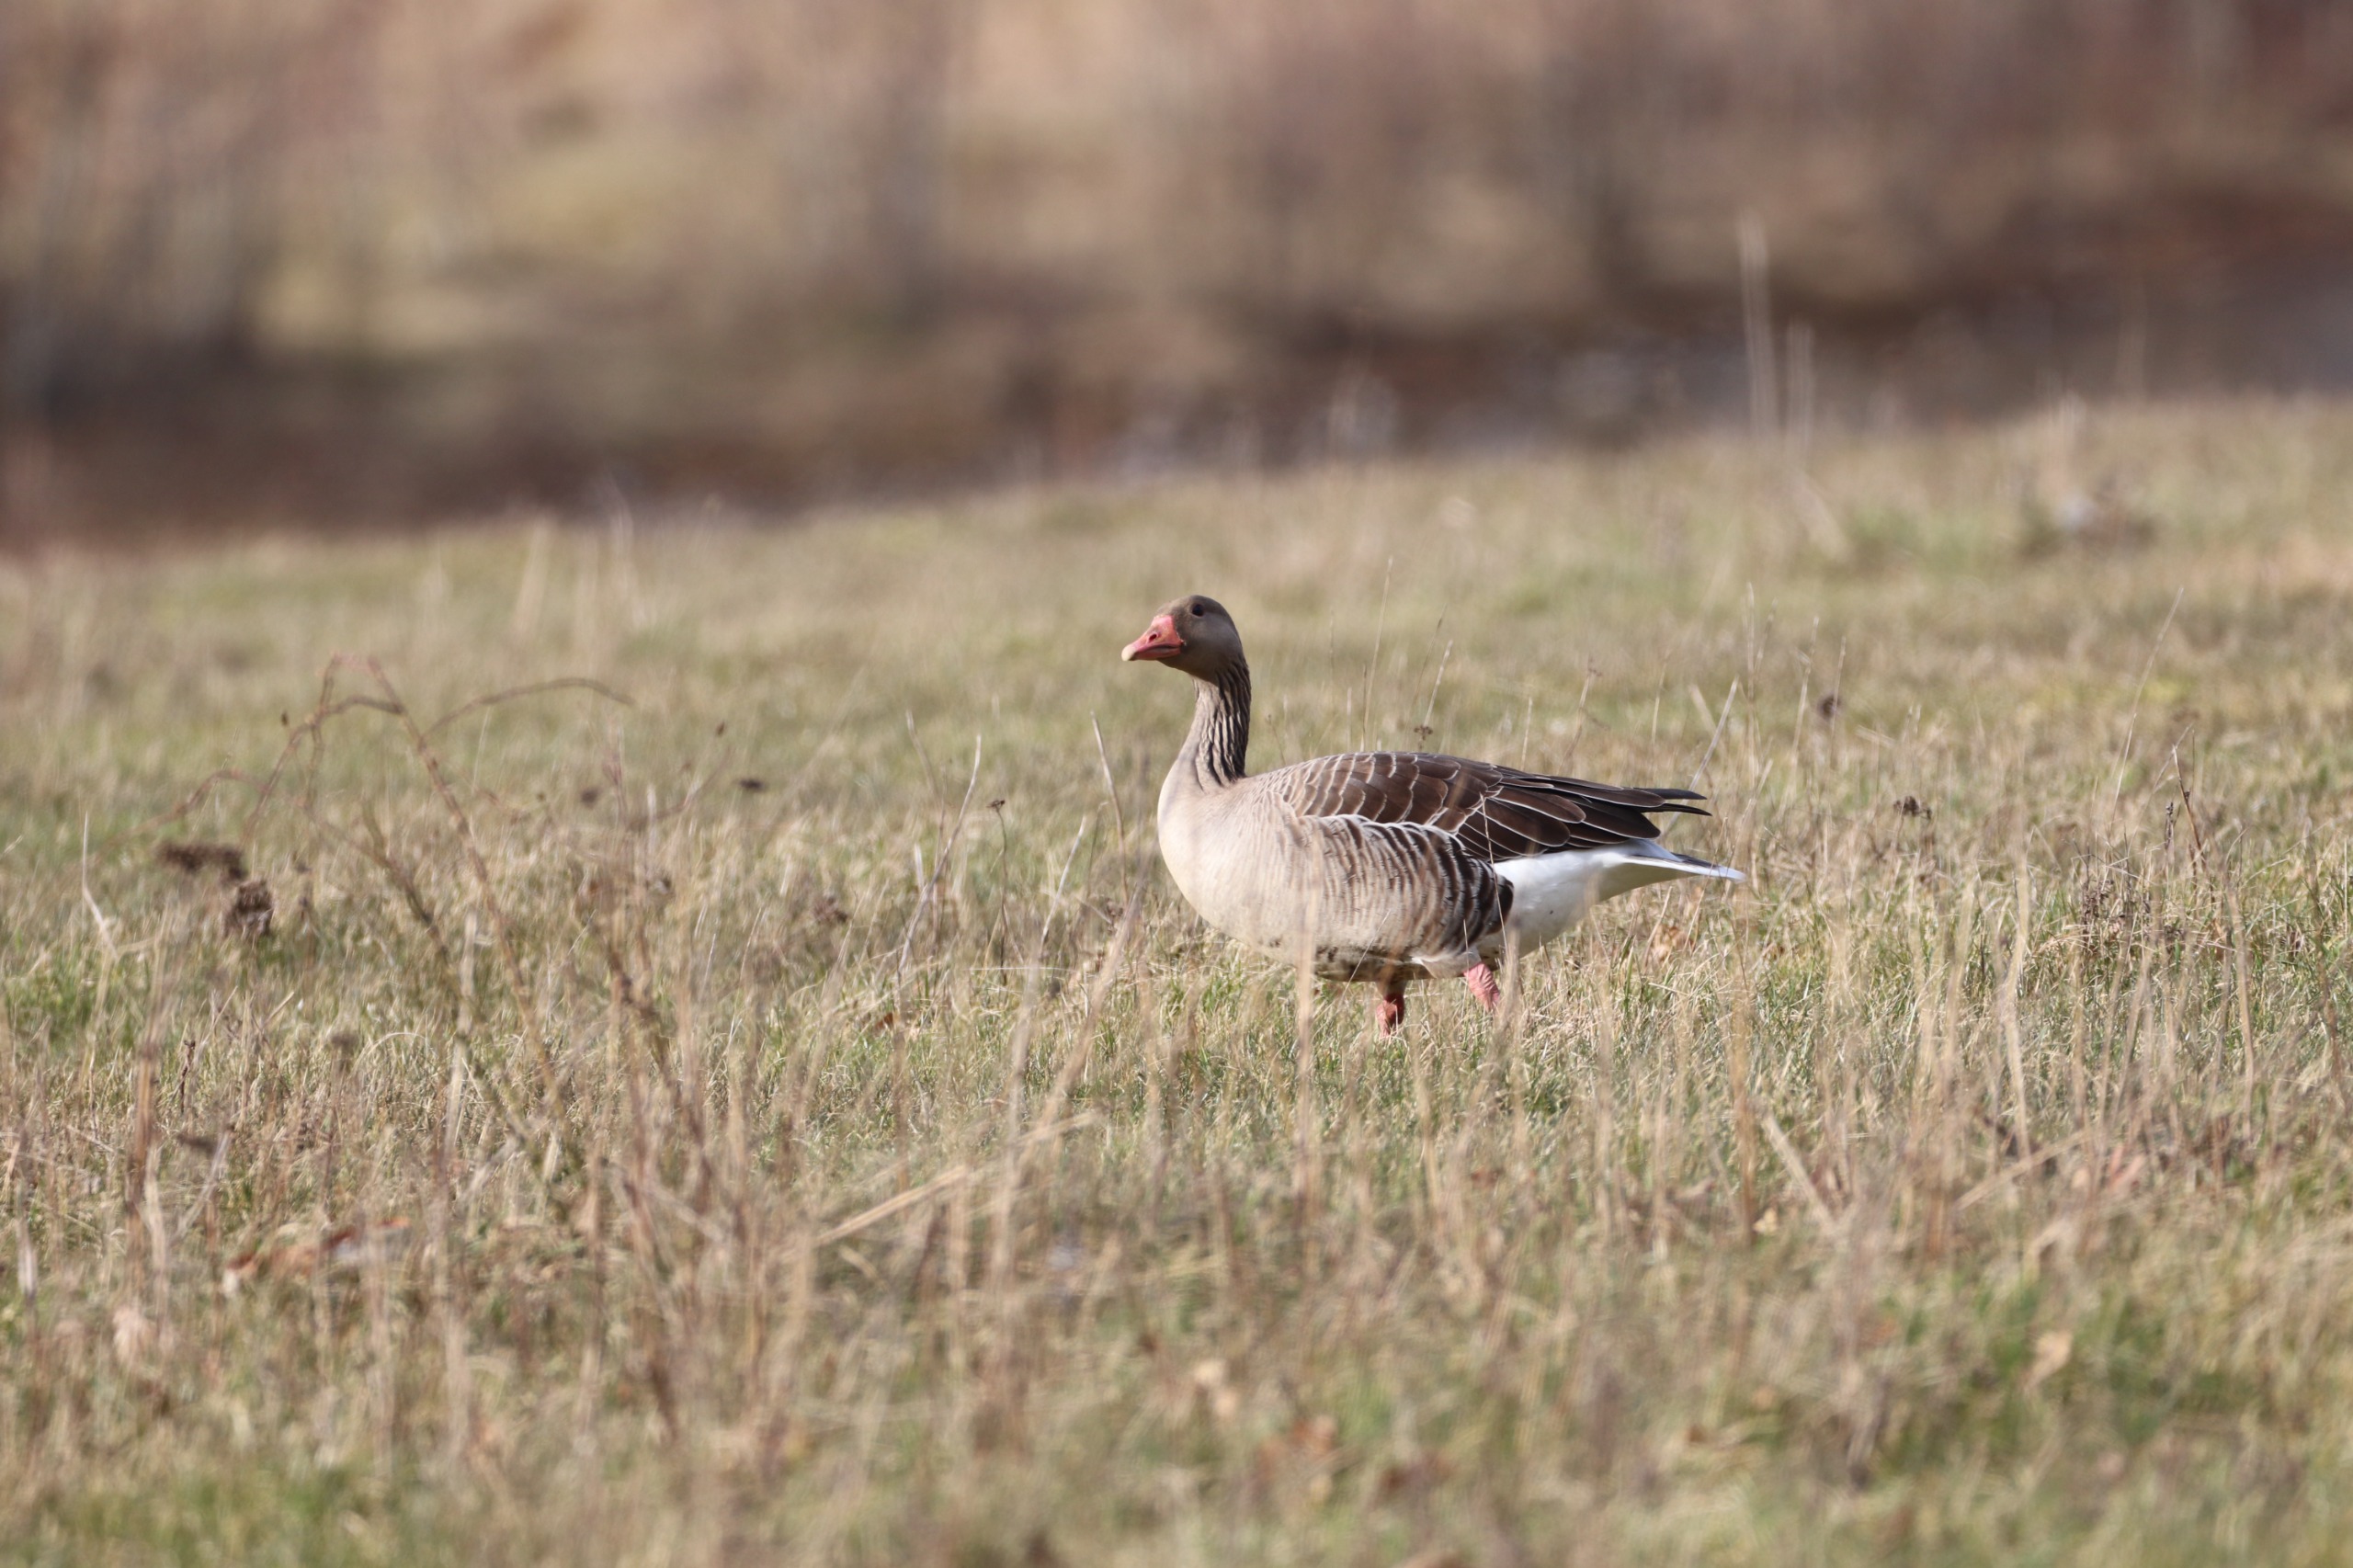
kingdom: Animalia
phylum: Chordata
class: Aves
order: Anseriformes
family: Anatidae
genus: Anser
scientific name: Anser anser
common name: Grågås
